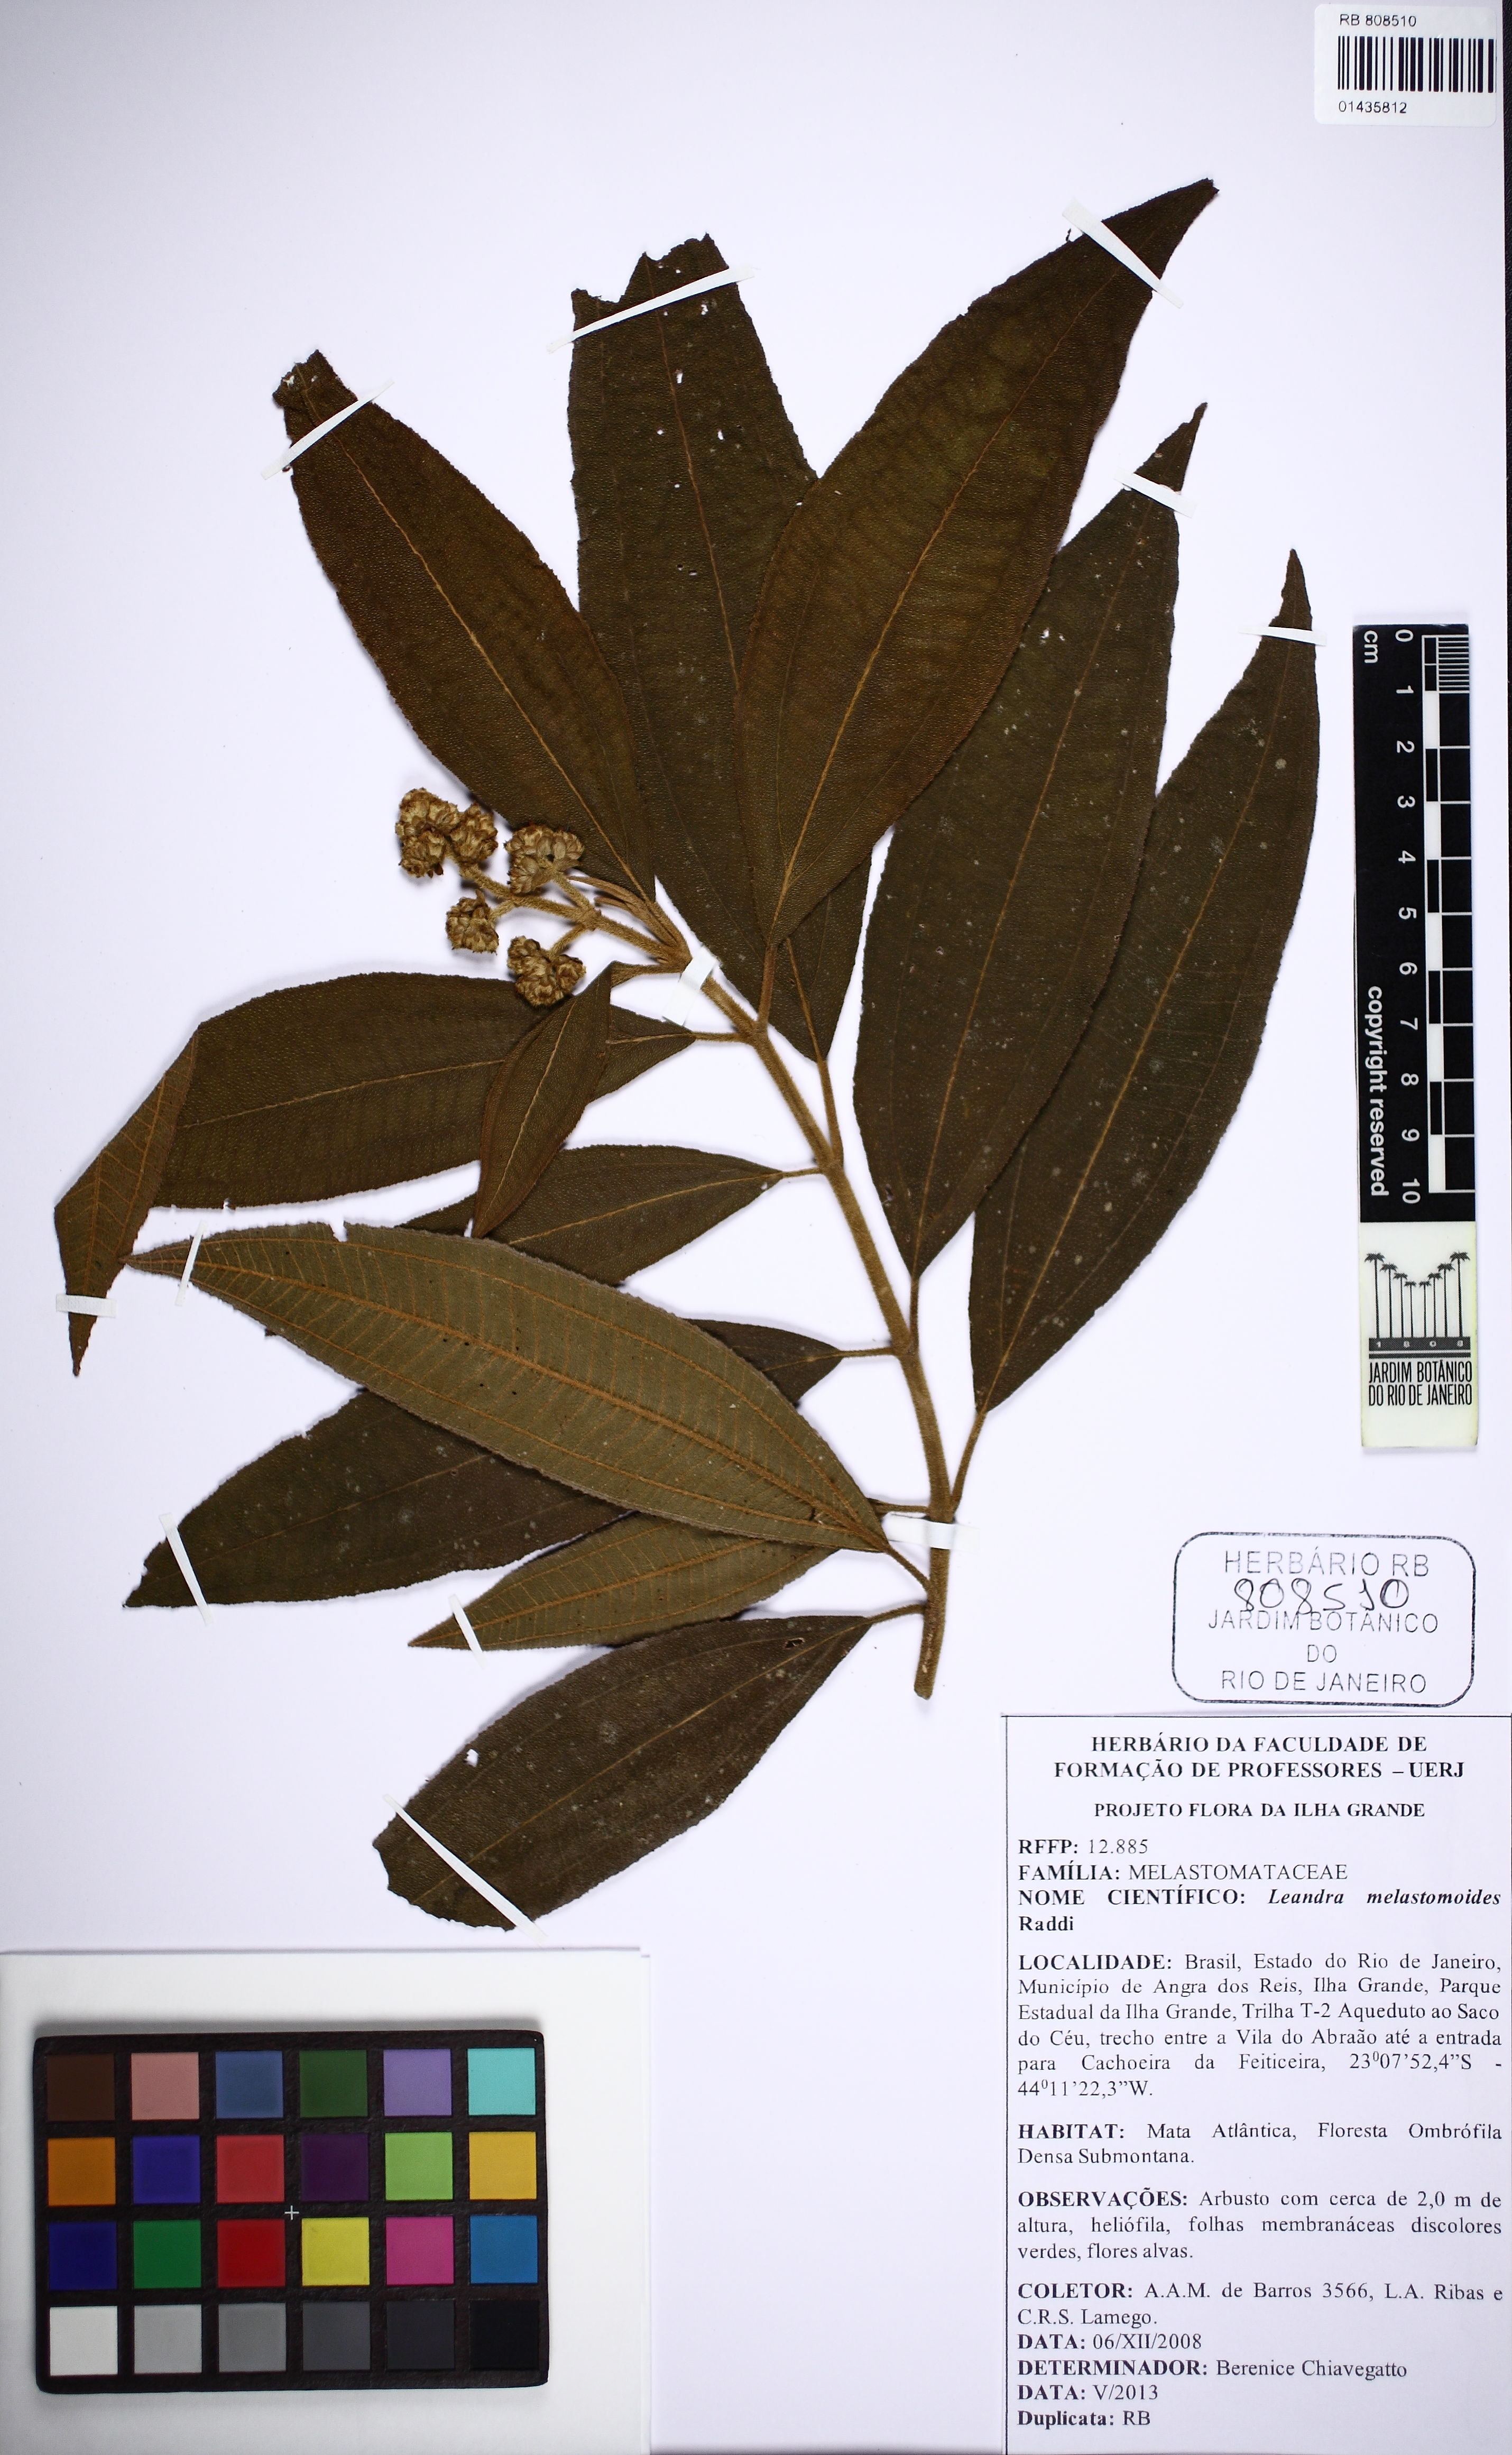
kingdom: Plantae
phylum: Tracheophyta
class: Magnoliopsida
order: Myrtales
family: Melastomataceae
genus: Miconia
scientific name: Miconia melastomoides
